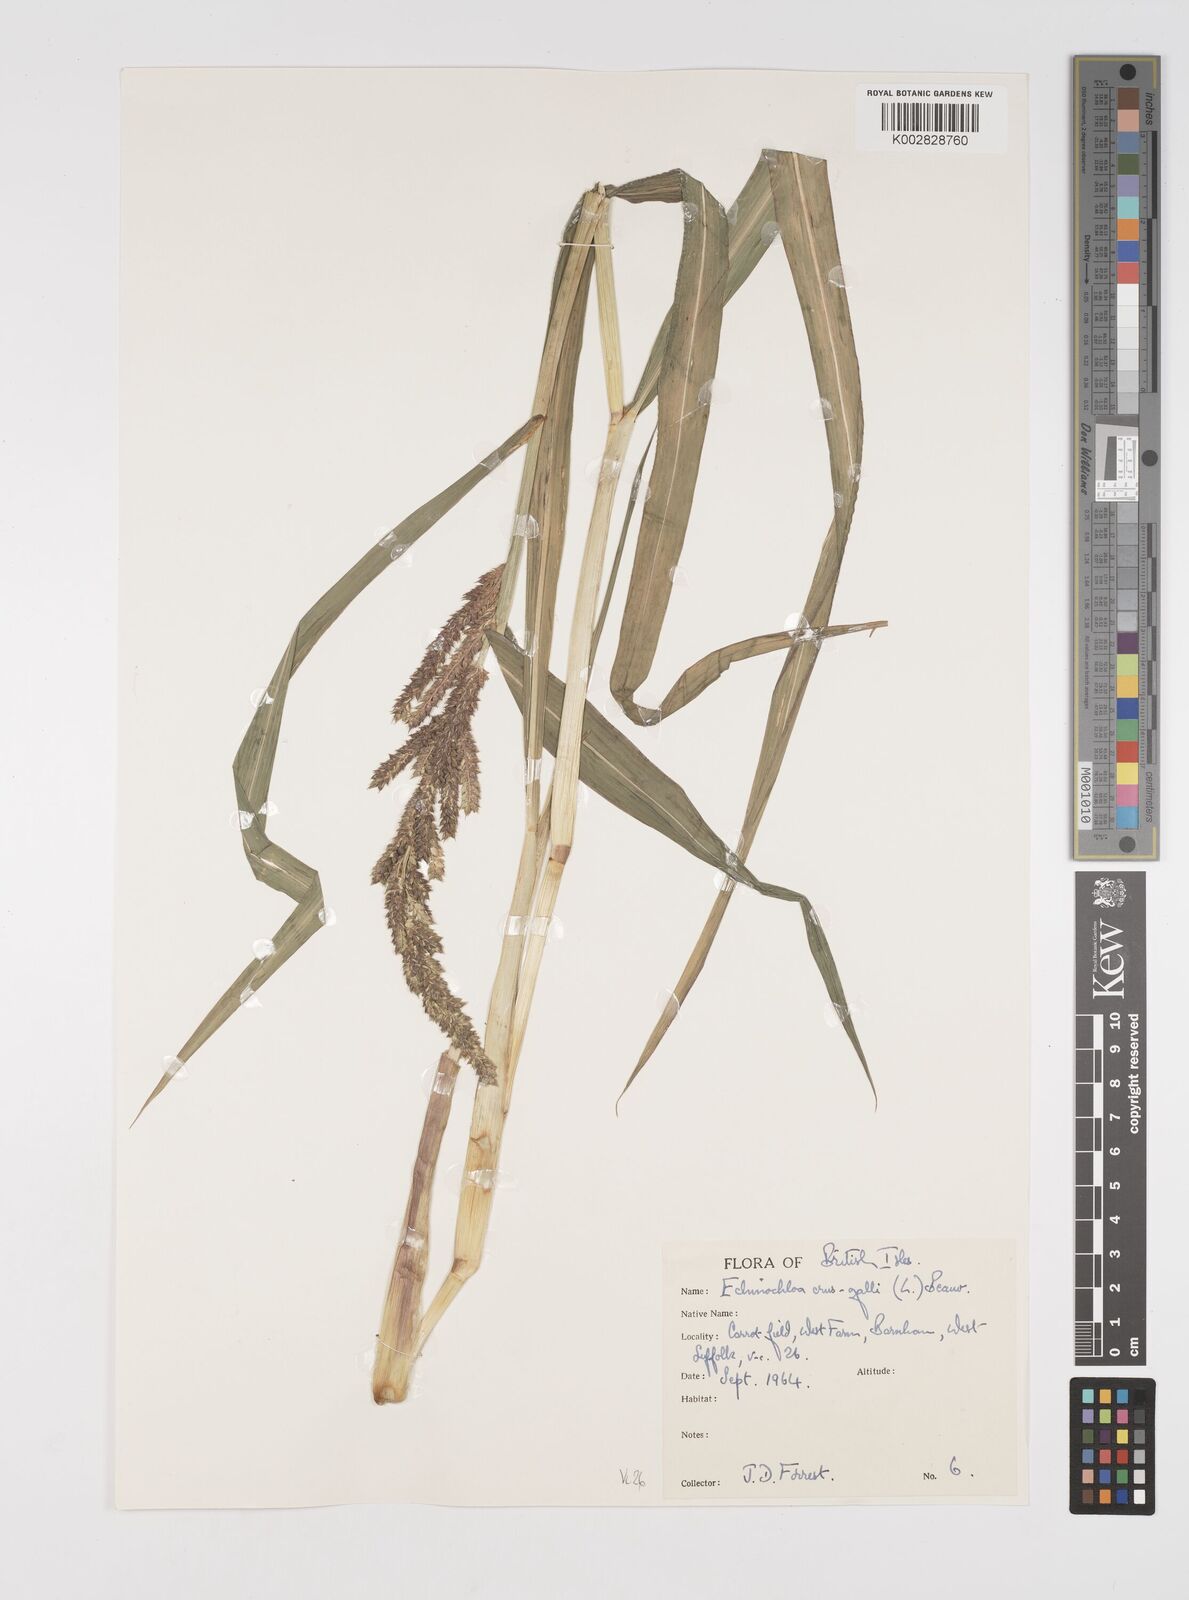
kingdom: Plantae
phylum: Tracheophyta
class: Liliopsida
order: Poales
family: Poaceae
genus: Echinochloa
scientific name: Echinochloa crus-galli
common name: Cockspur
